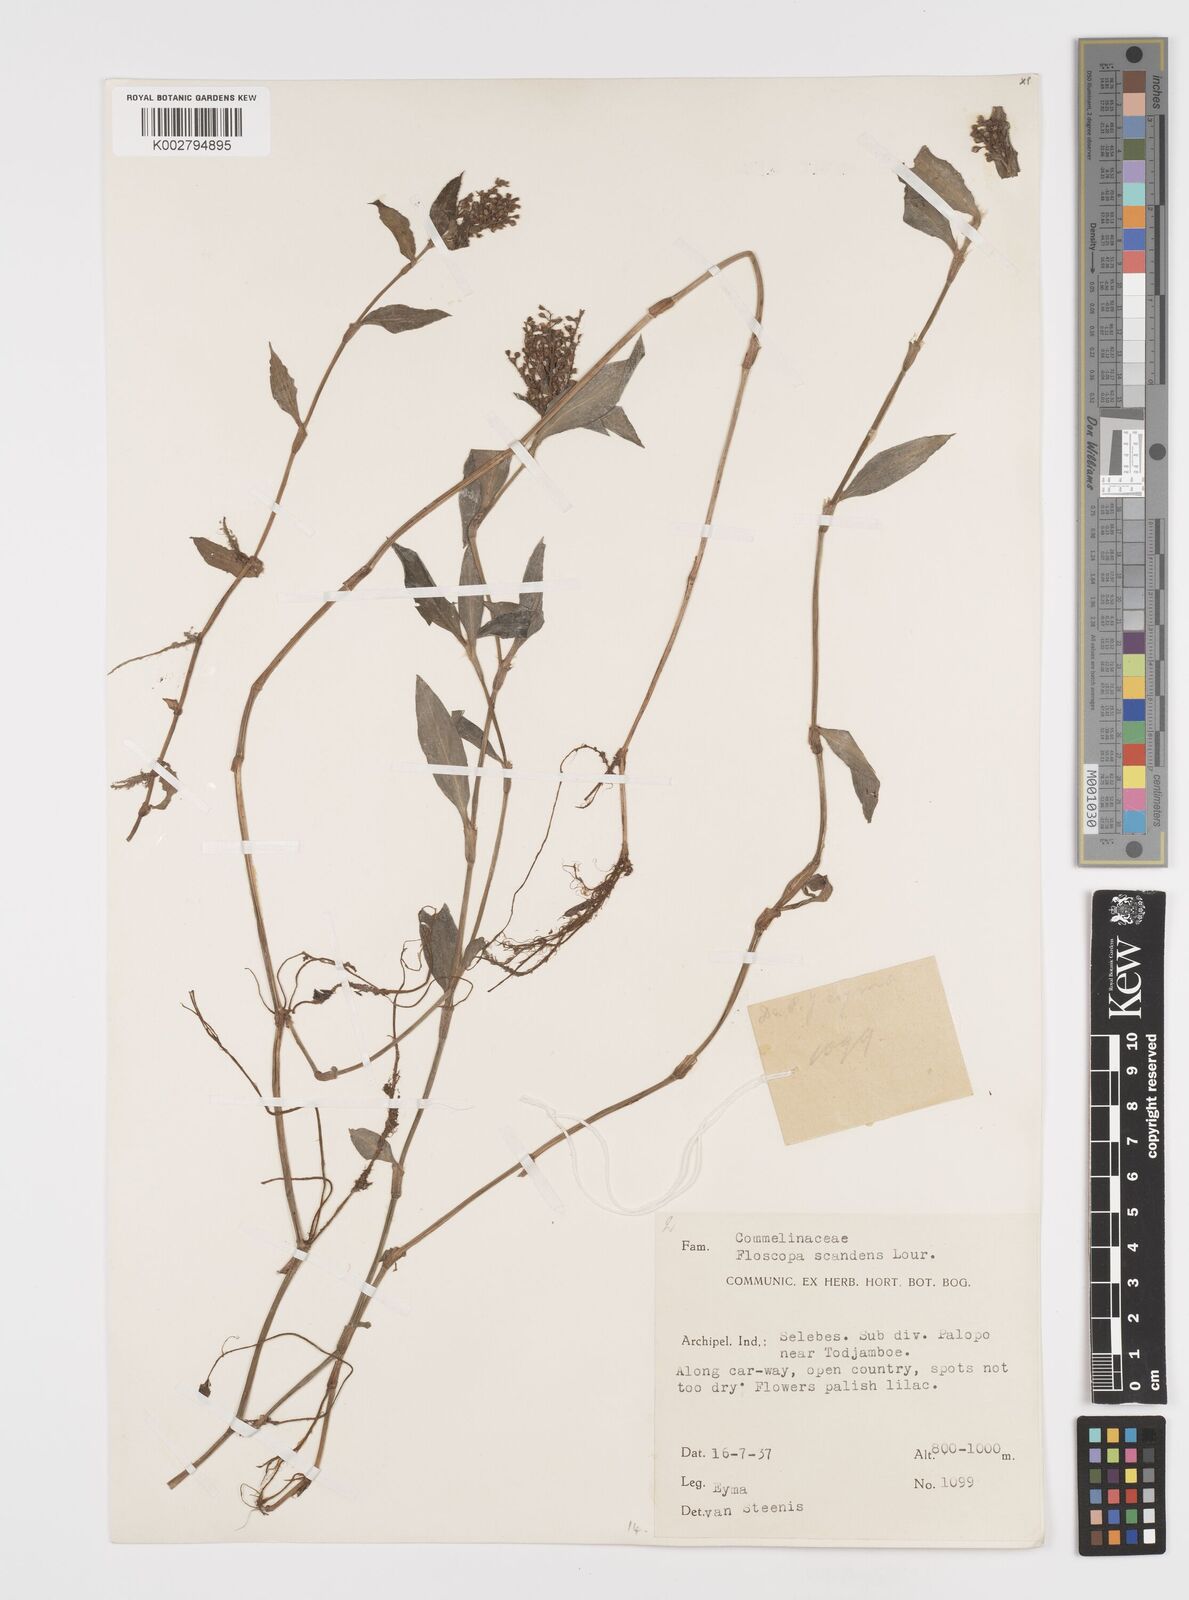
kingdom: Plantae
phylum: Tracheophyta
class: Liliopsida
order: Commelinales
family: Commelinaceae
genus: Floscopa
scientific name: Floscopa scandens
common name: Climbing flower cup
